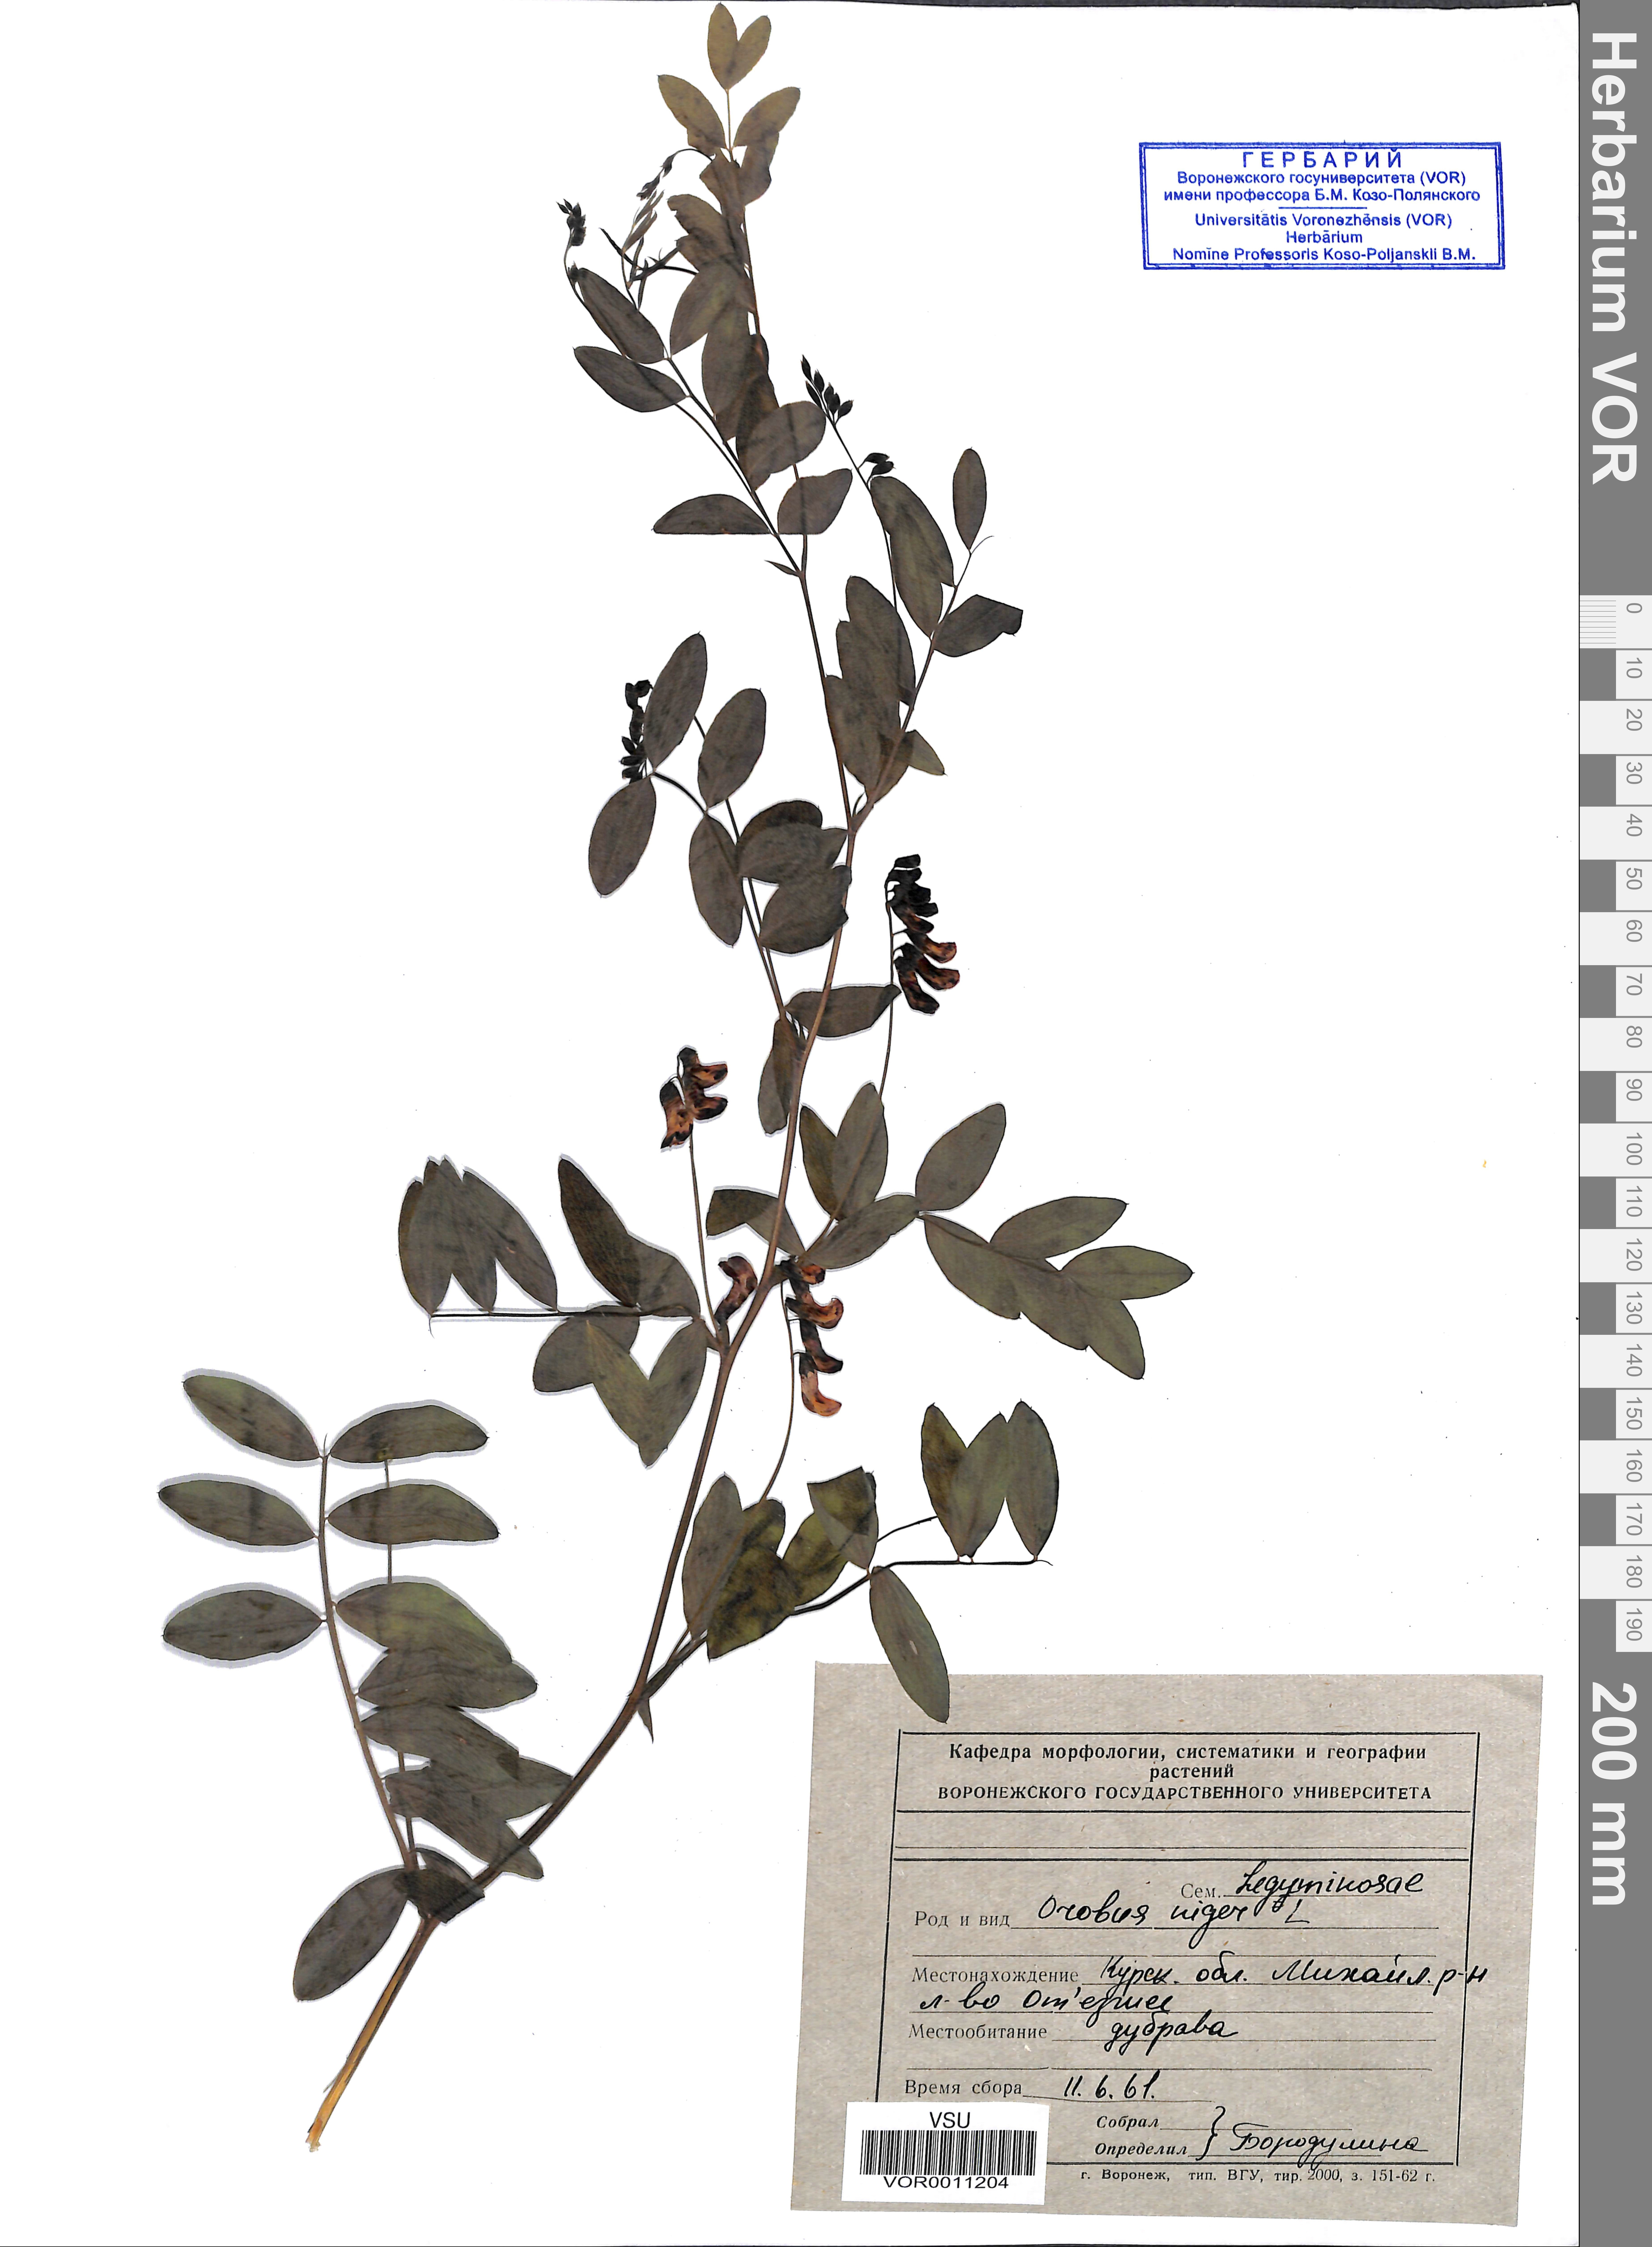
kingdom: Plantae
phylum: Tracheophyta
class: Magnoliopsida
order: Fabales
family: Fabaceae
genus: Lathyrus
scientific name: Lathyrus niger
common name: Black pea
